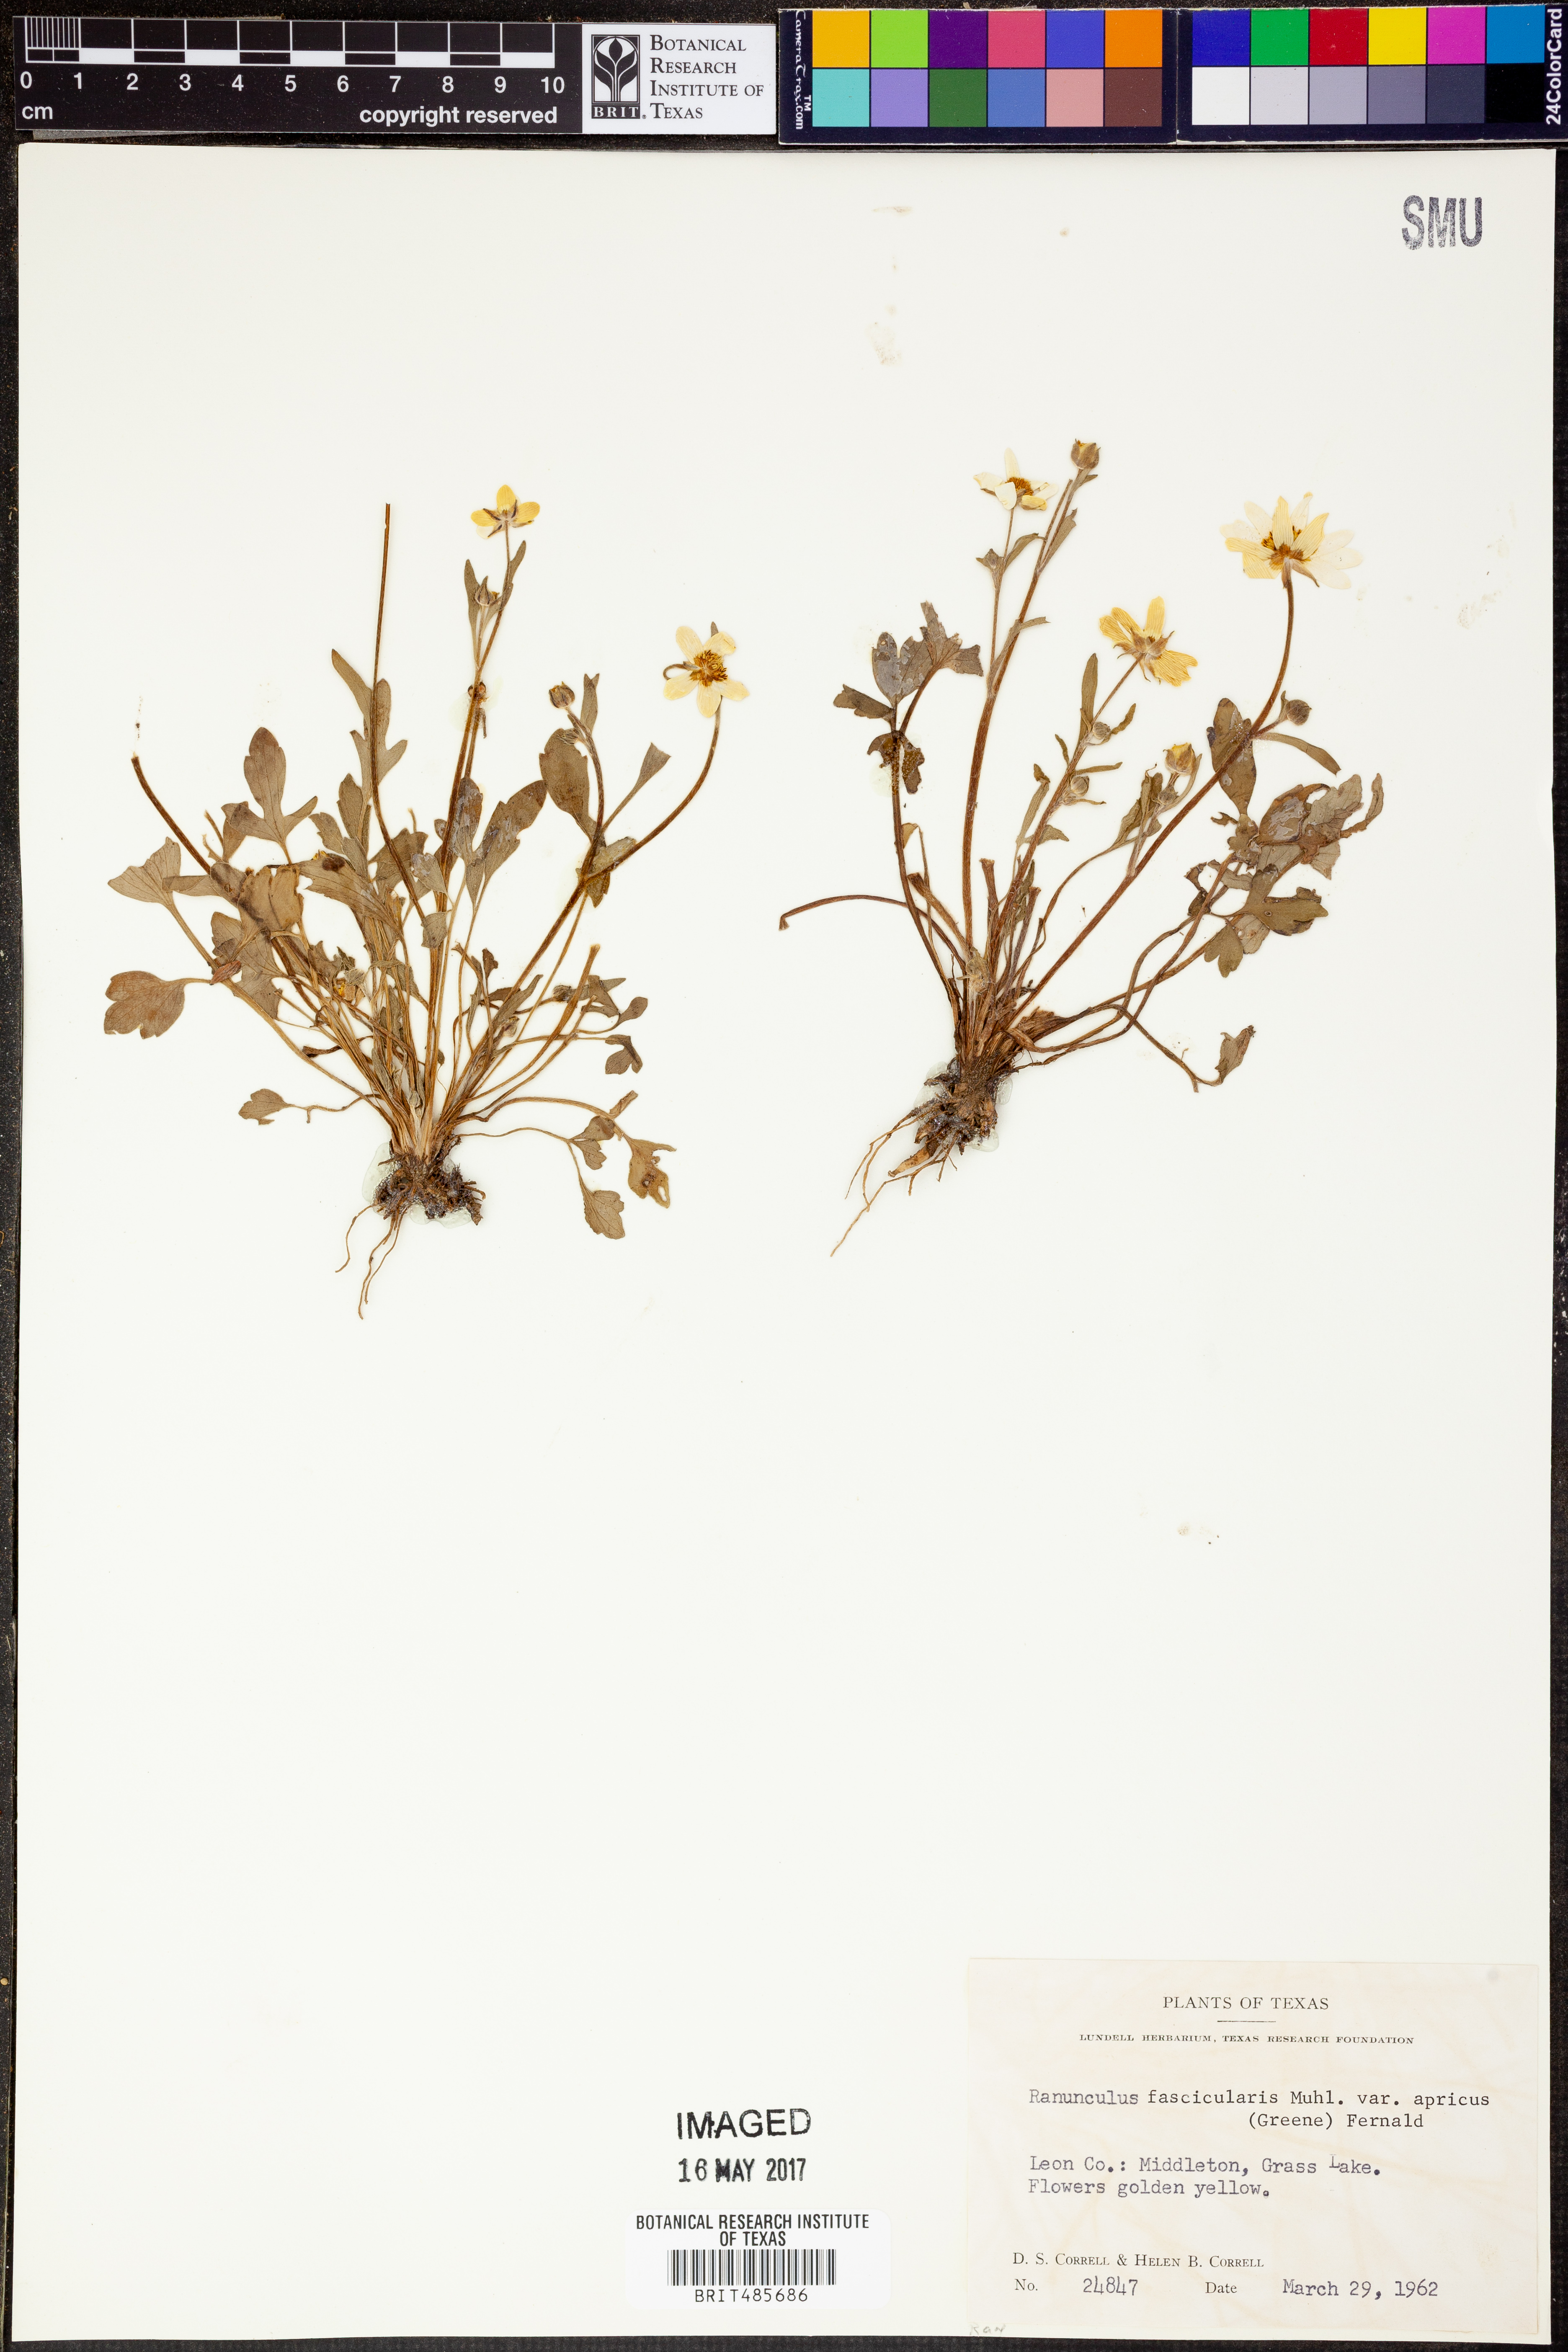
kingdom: Plantae
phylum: Tracheophyta
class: Magnoliopsida
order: Ranunculales
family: Ranunculaceae
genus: Ranunculus
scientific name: Ranunculus fascicularis
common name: Early buttercup
